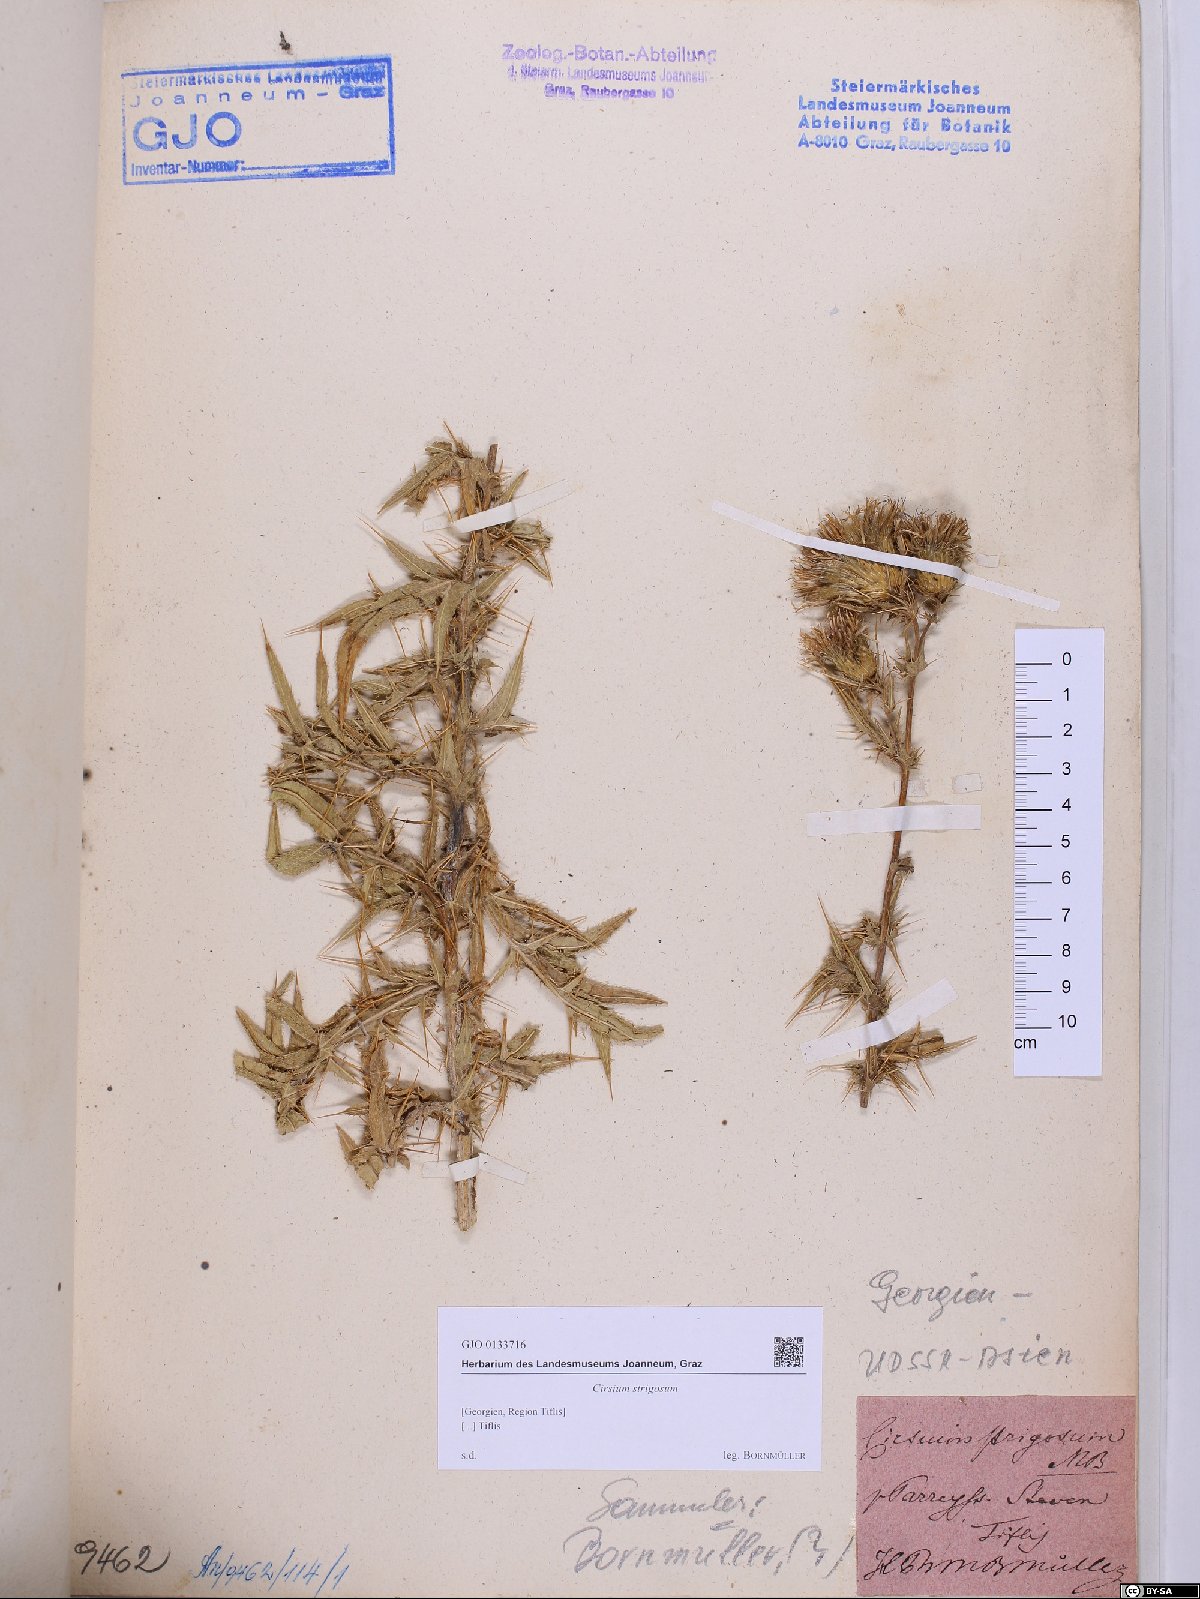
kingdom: Plantae
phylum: Tracheophyta
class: Magnoliopsida
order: Asterales
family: Asteraceae
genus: Lophiolepis
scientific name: Lophiolepis strigosa
